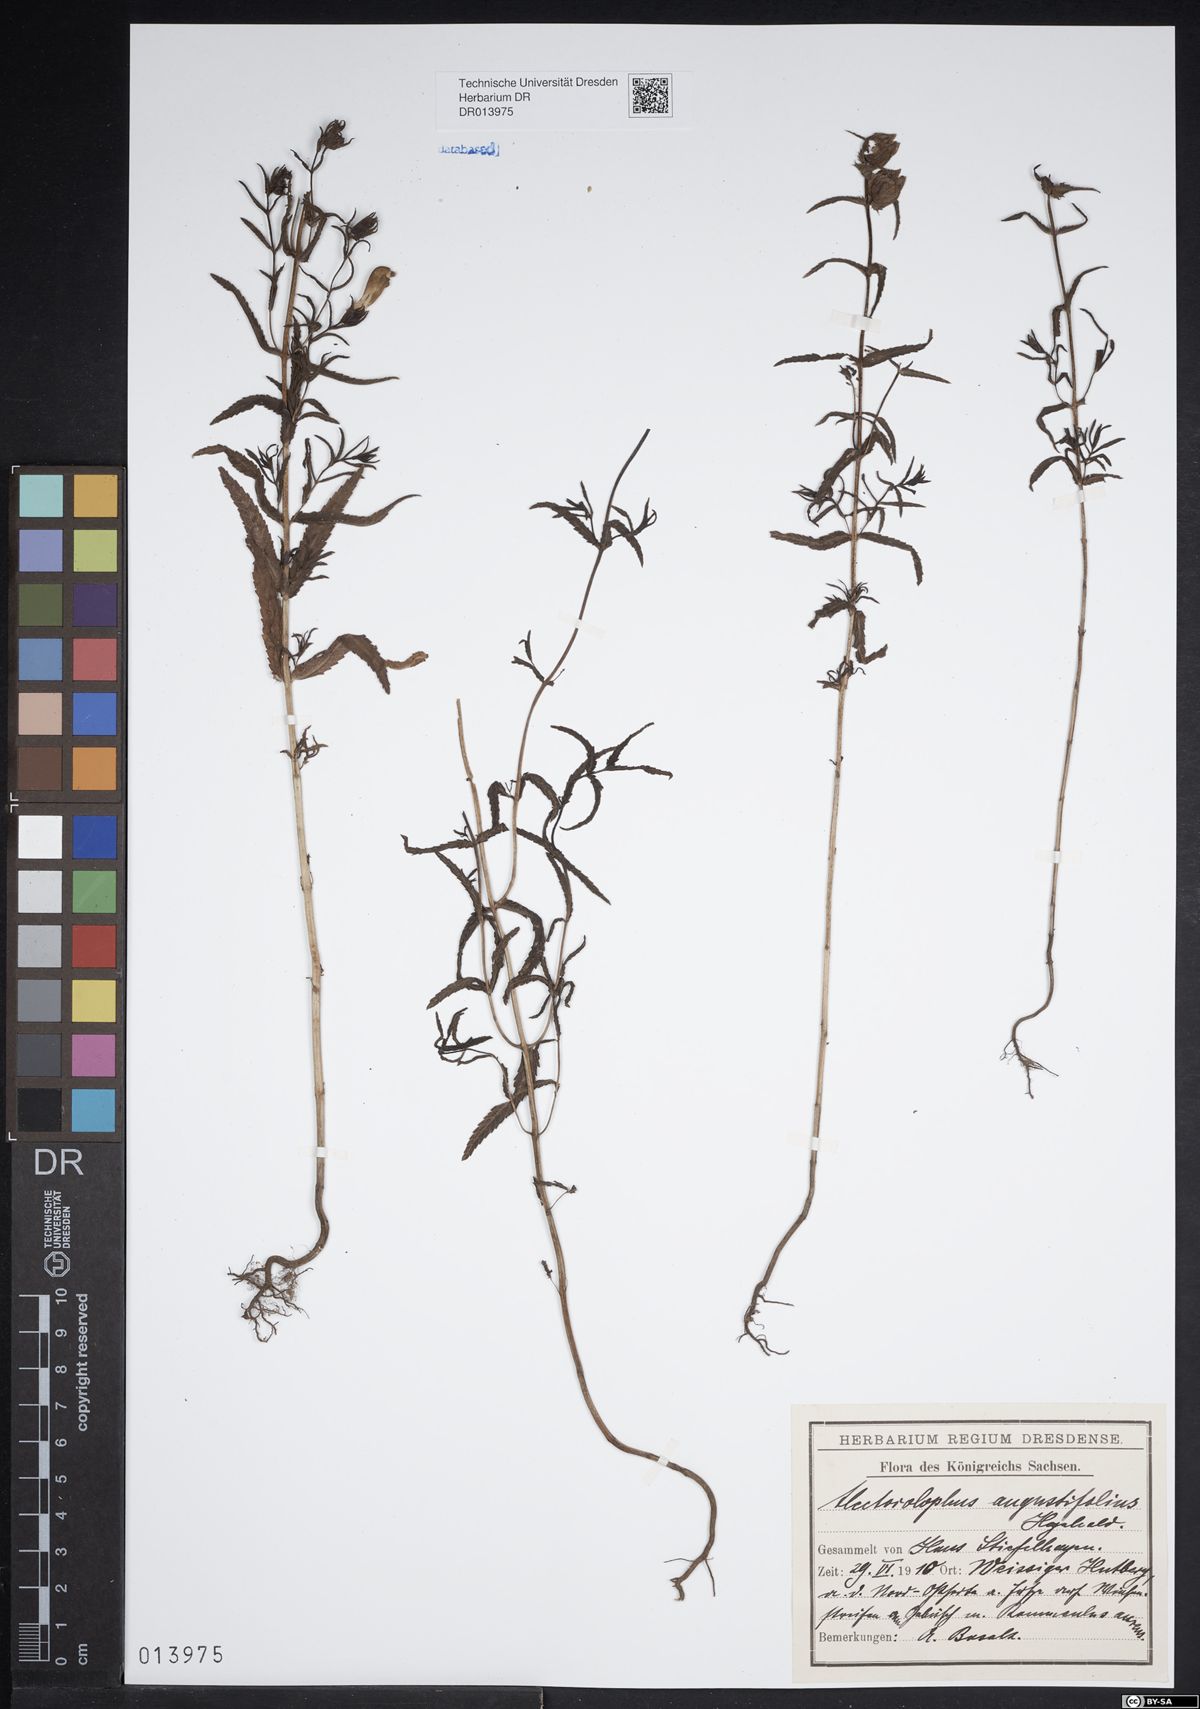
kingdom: Plantae
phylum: Tracheophyta
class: Magnoliopsida
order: Lamiales
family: Orobanchaceae
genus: Rhinanthus
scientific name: Rhinanthus serotinus
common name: Late-flowering yellow rattle
